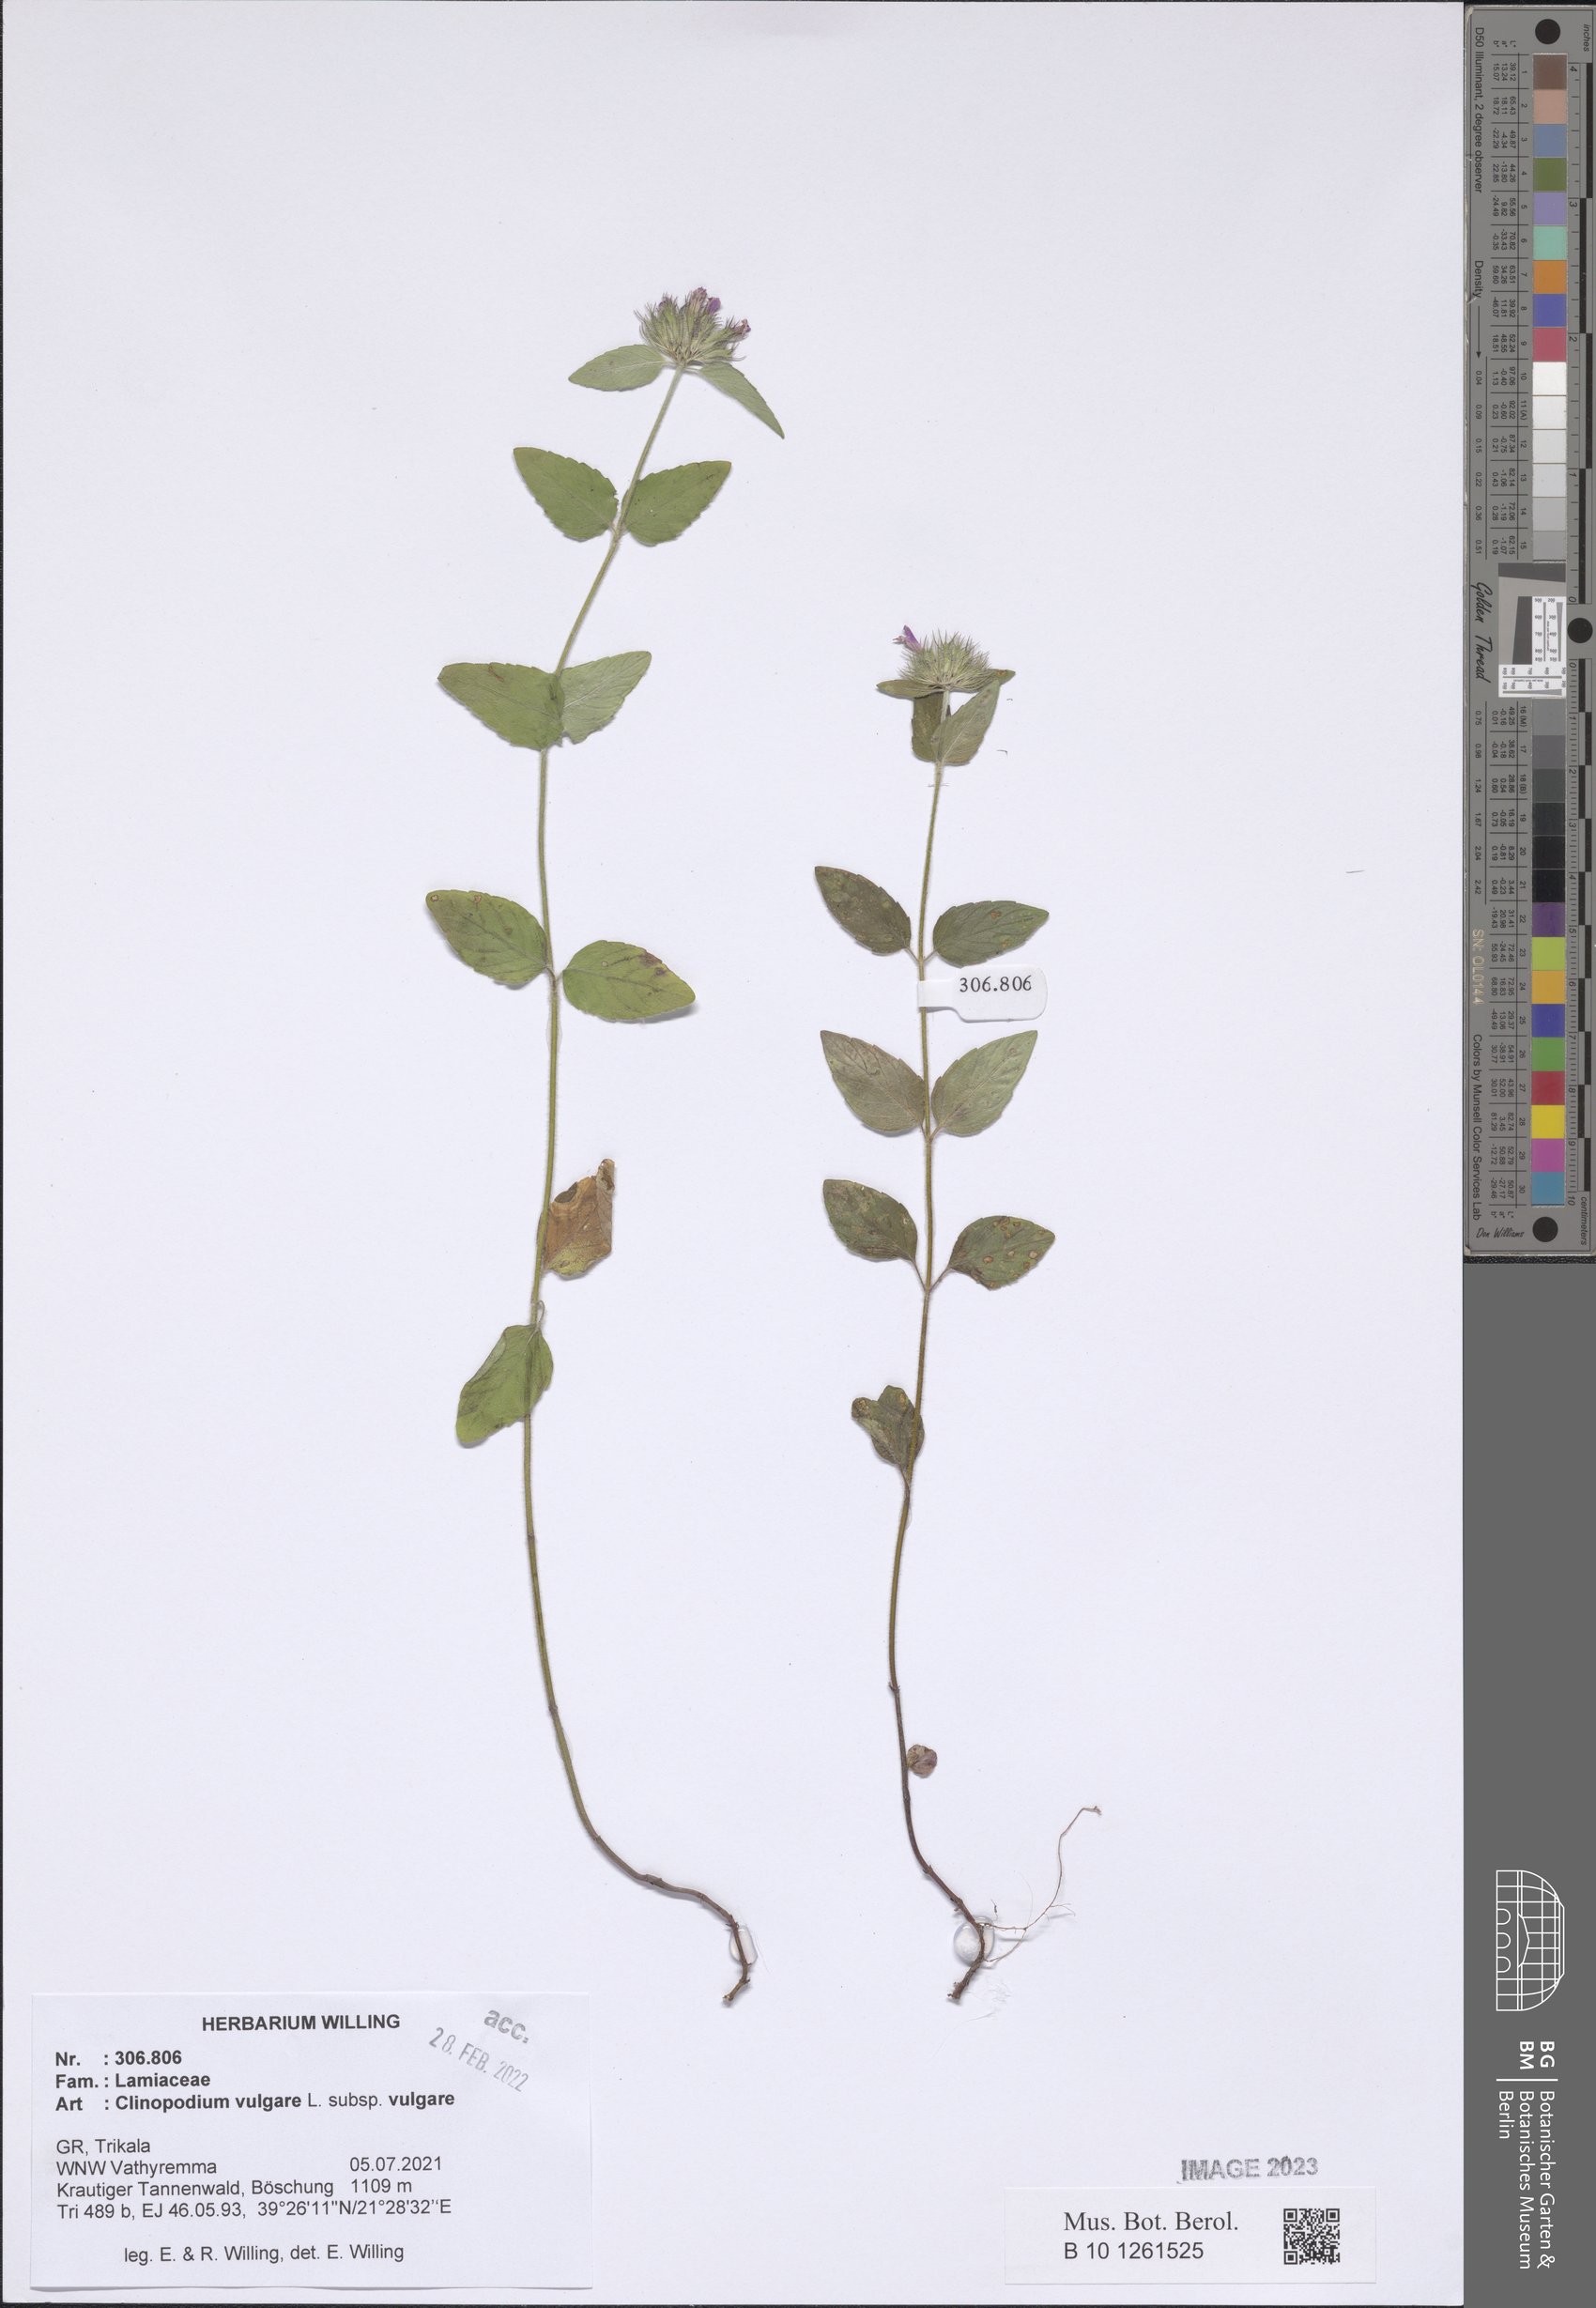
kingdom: Plantae
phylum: Tracheophyta
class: Magnoliopsida
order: Lamiales
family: Lamiaceae
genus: Clinopodium
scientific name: Clinopodium vulgare
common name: Wild basil
